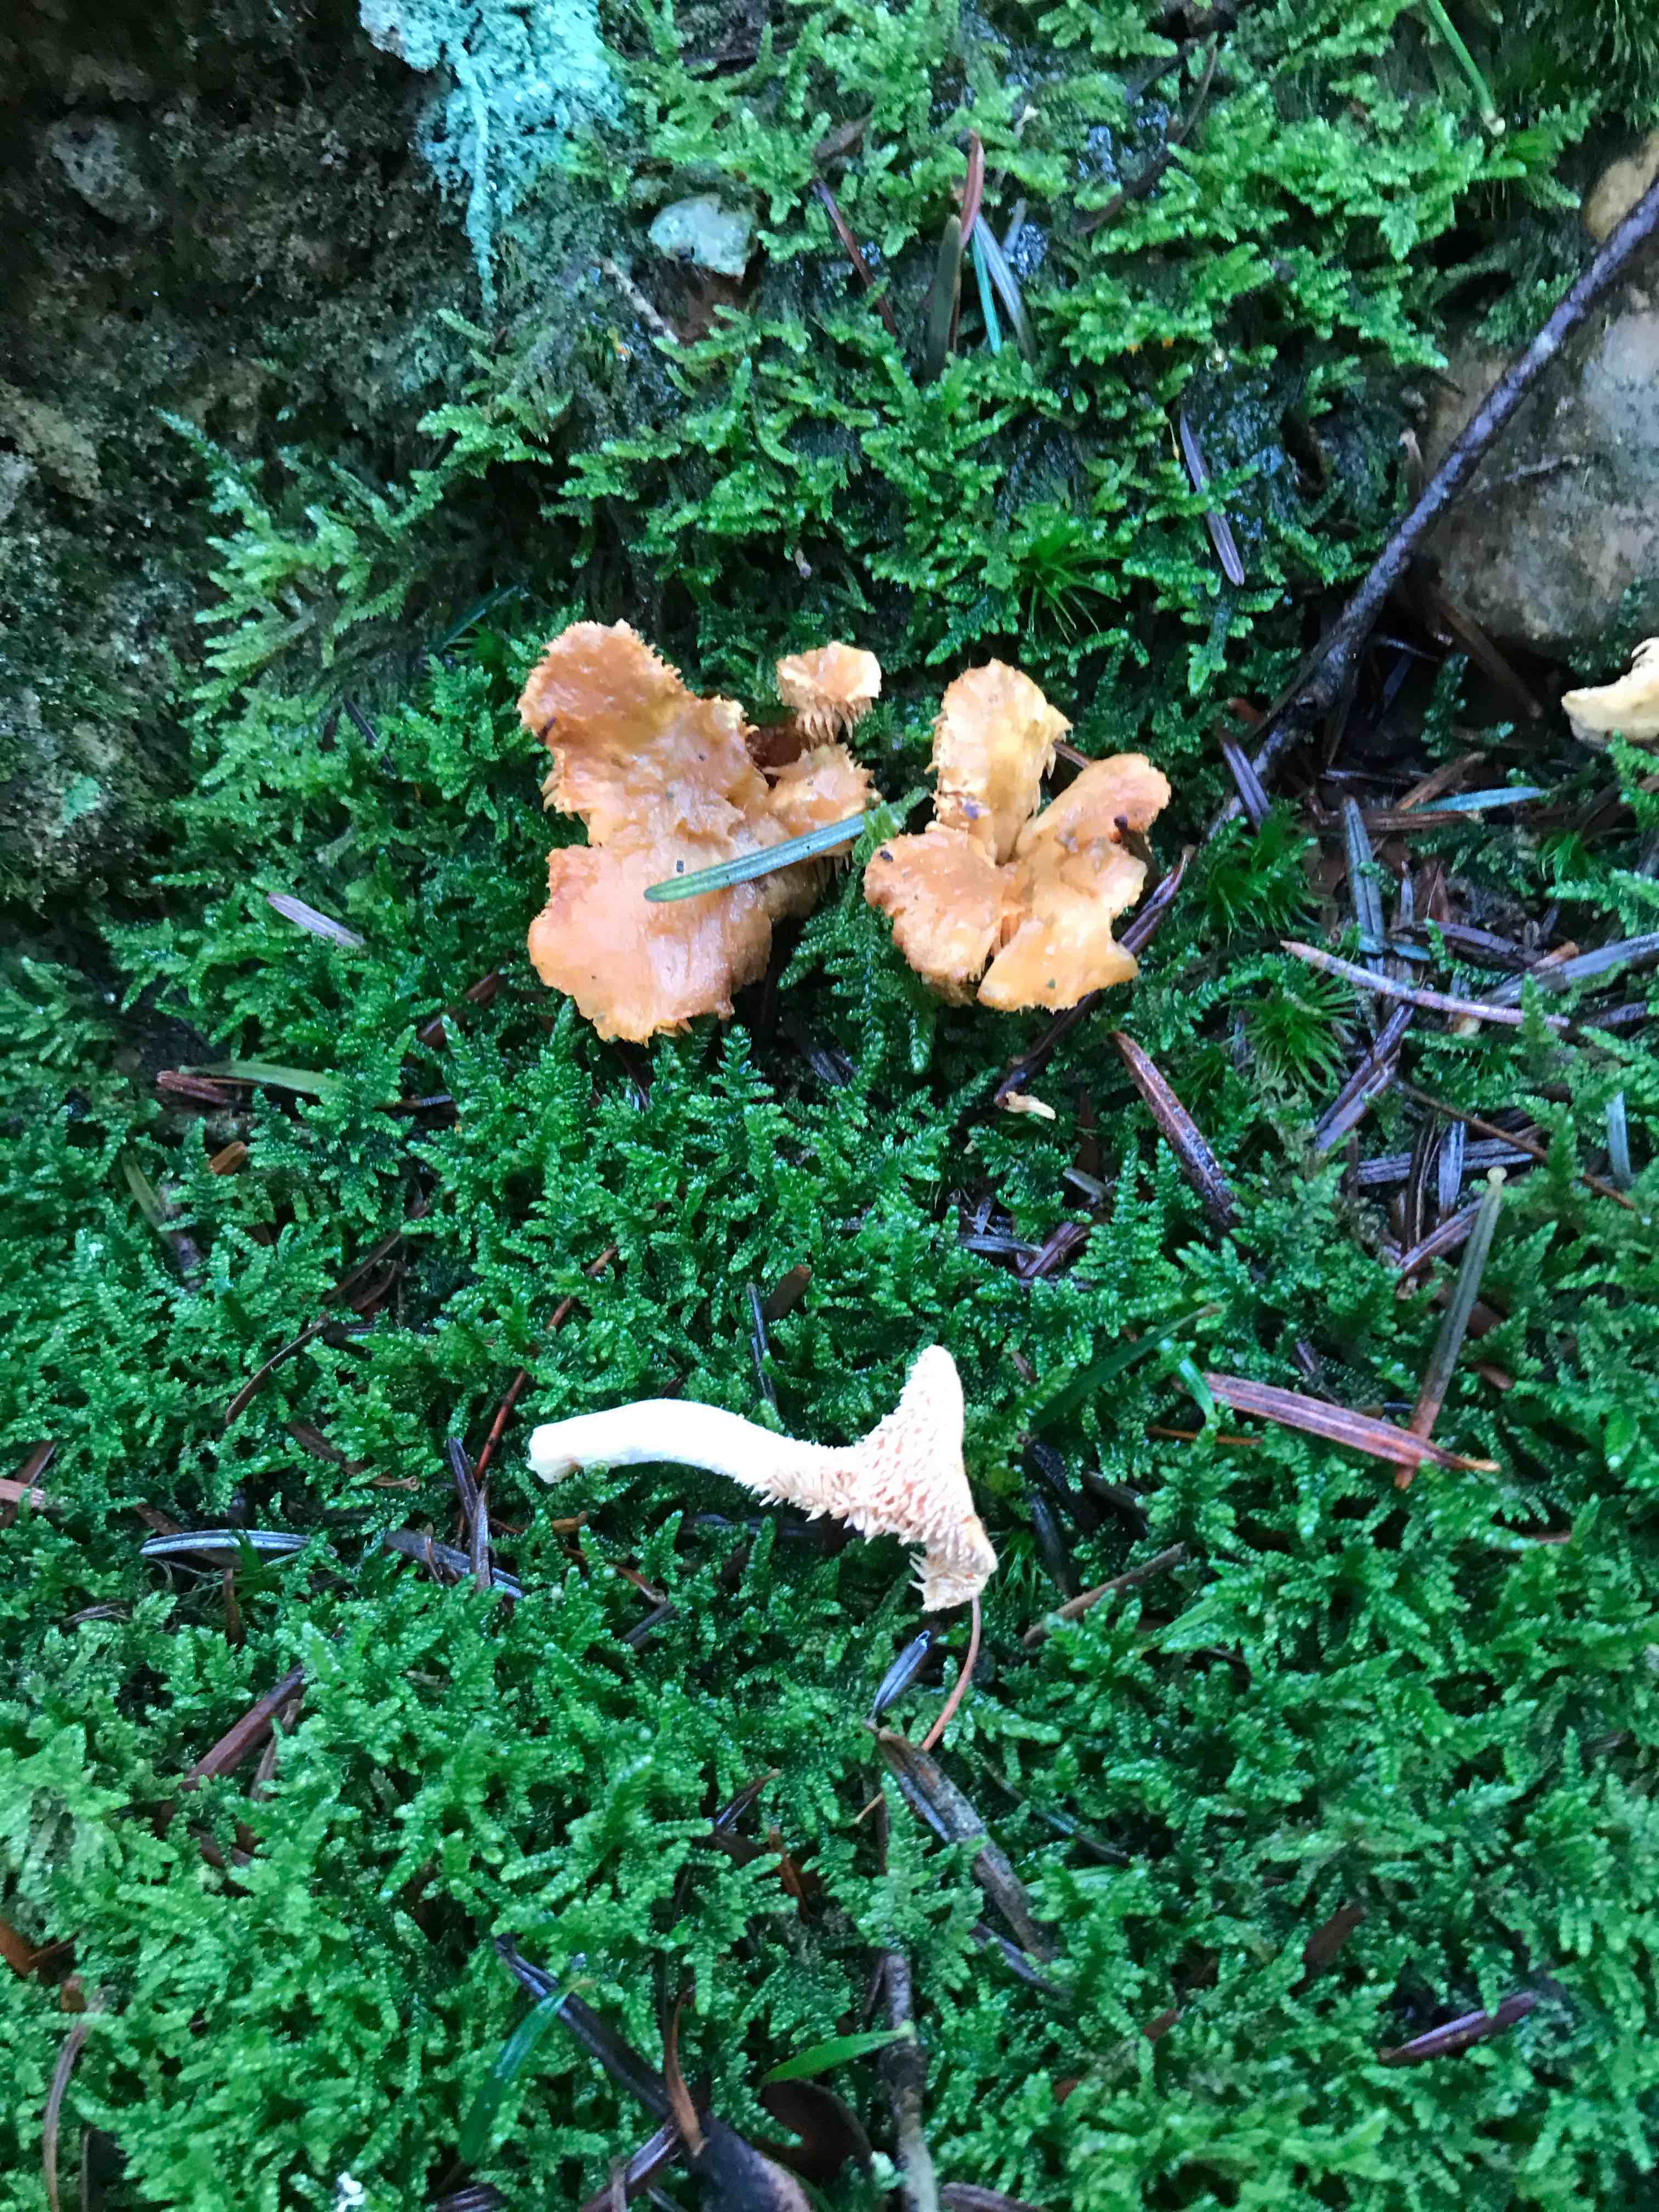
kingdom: Fungi
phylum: Basidiomycota
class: Agaricomycetes
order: Cantharellales
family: Hydnaceae
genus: Hydnum
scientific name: Hydnum
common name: pigsvamp
